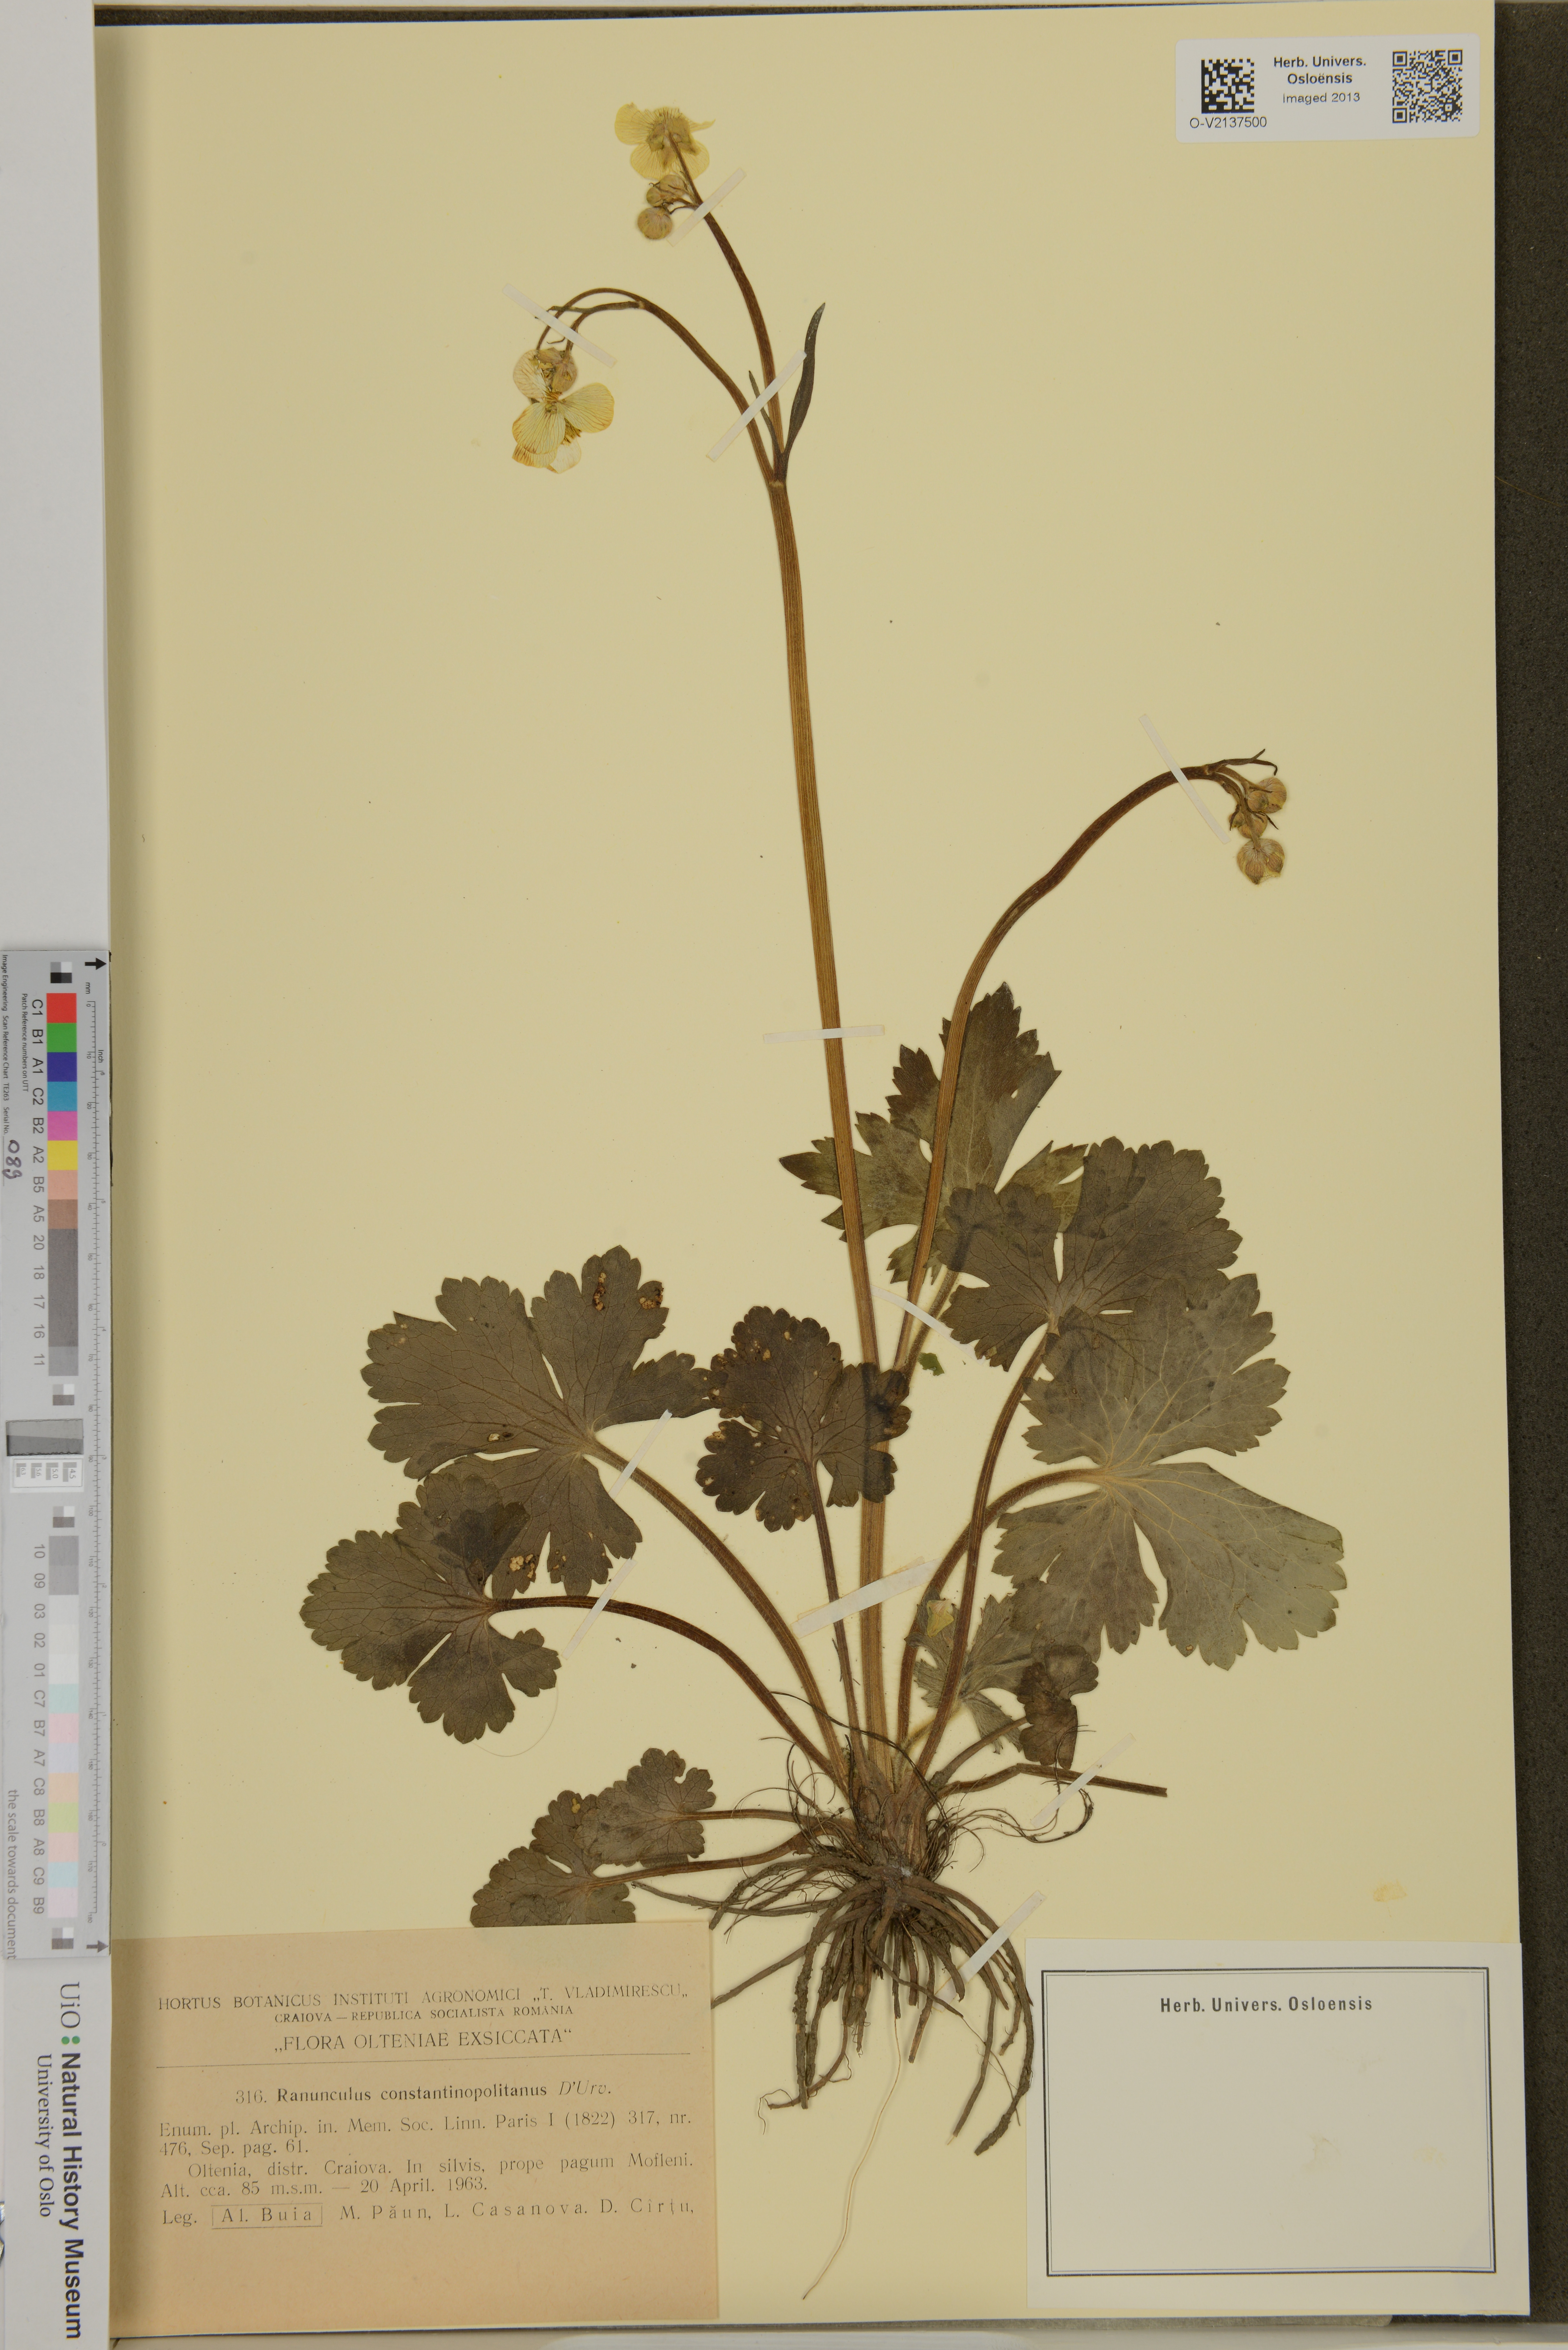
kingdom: Plantae
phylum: Tracheophyta
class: Magnoliopsida
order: Ranunculales
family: Ranunculaceae
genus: Ranunculus
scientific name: Ranunculus constantinopolitanus
